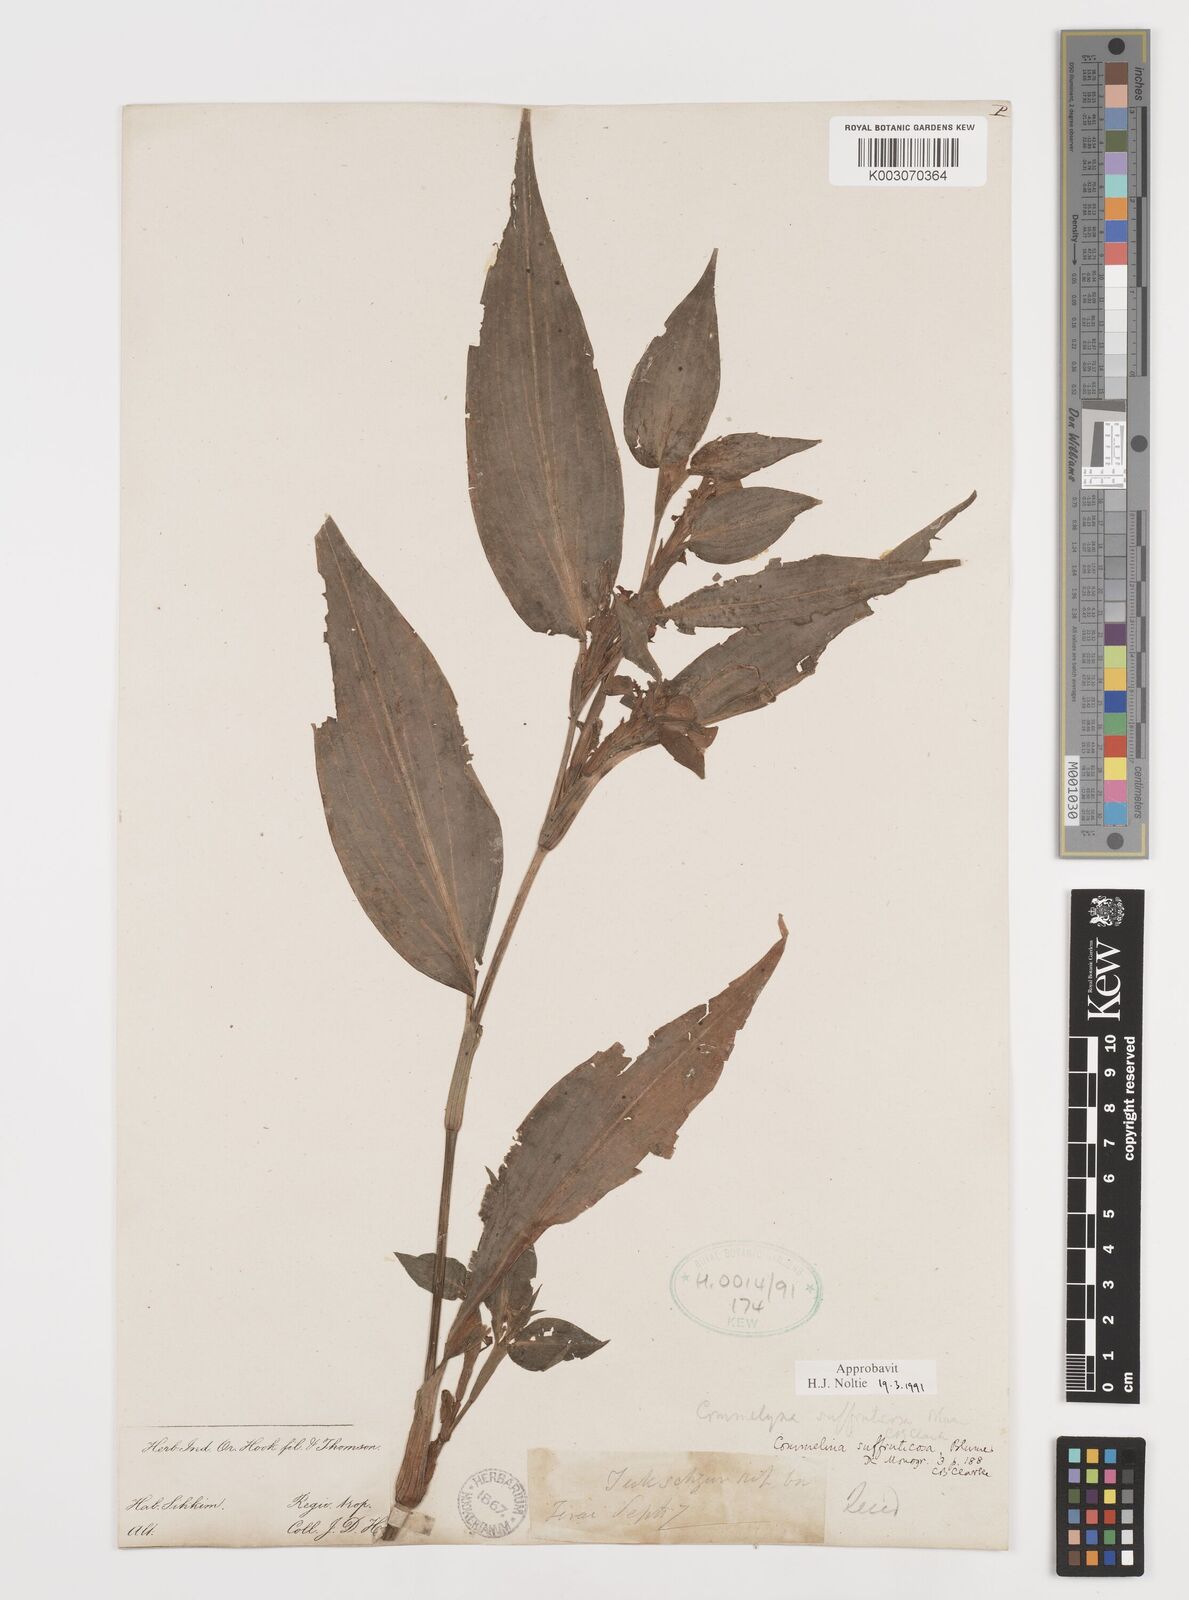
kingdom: Plantae
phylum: Tracheophyta
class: Liliopsida
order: Commelinales
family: Commelinaceae
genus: Commelina
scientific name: Commelina suffruticosa
